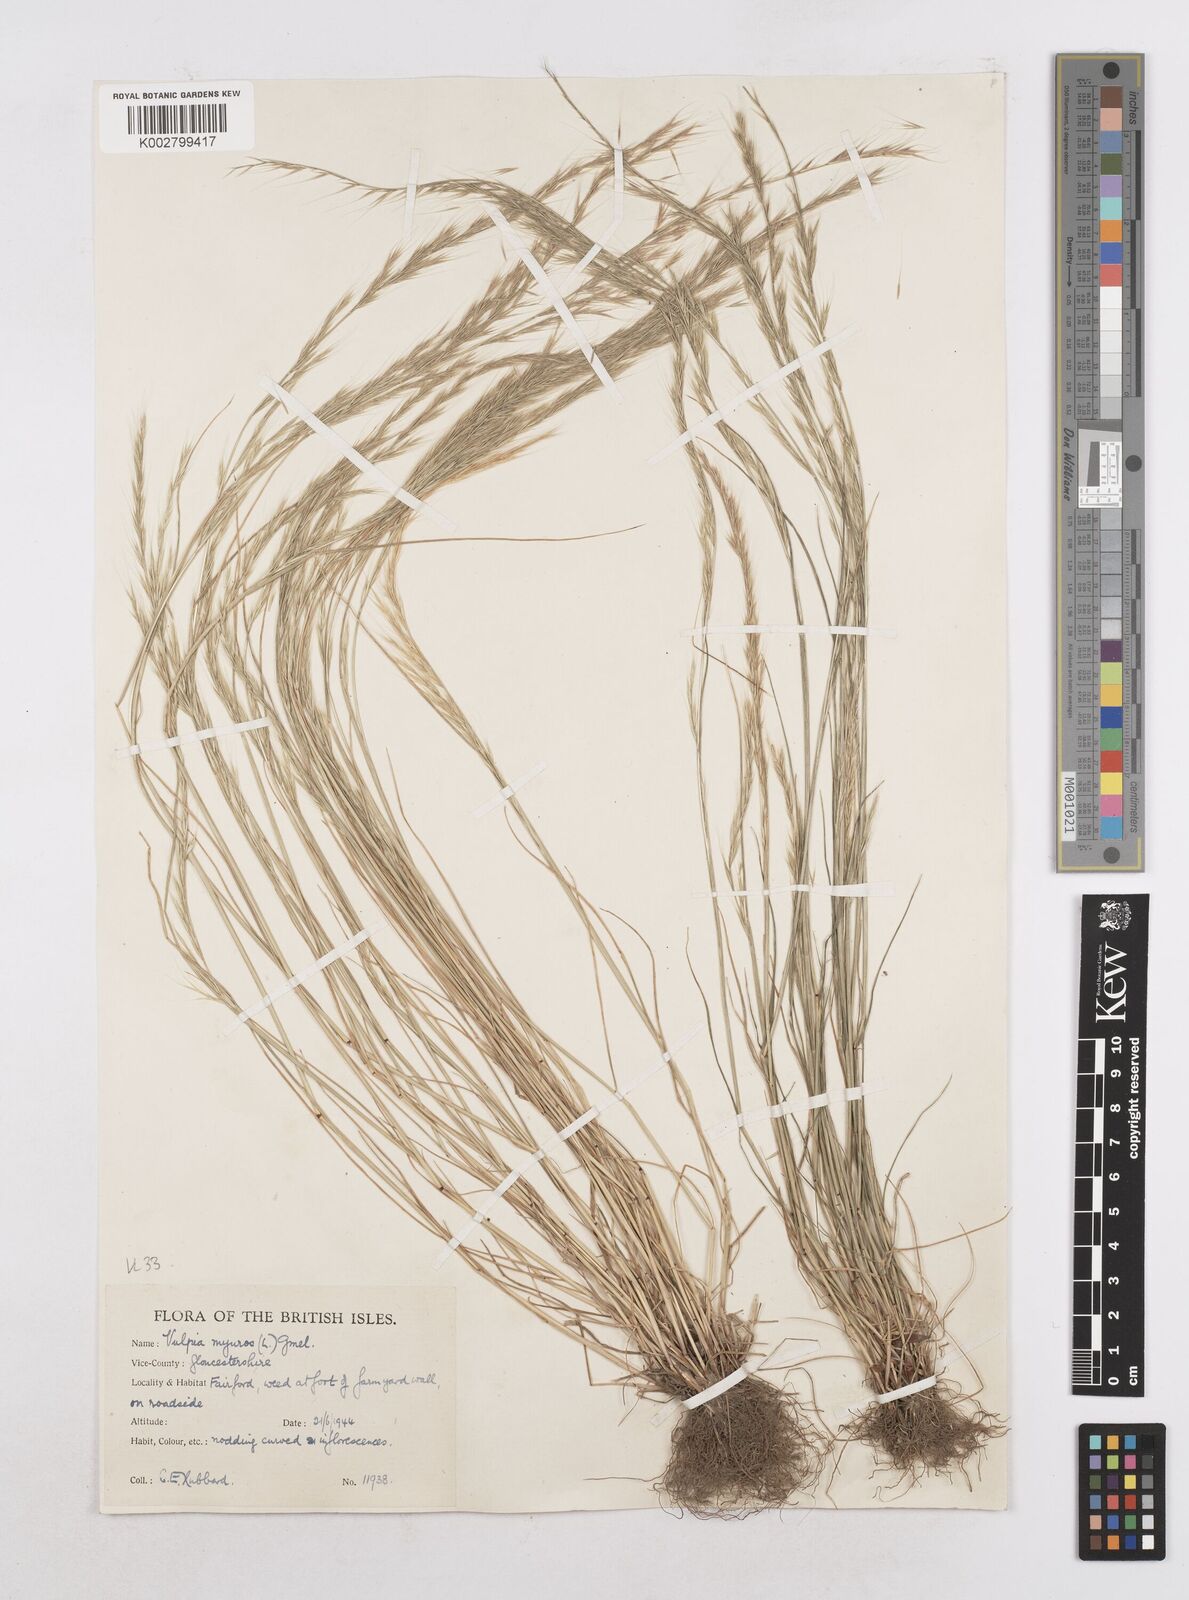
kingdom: Plantae
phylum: Tracheophyta
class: Liliopsida
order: Poales
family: Poaceae
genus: Festuca
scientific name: Festuca myuros
